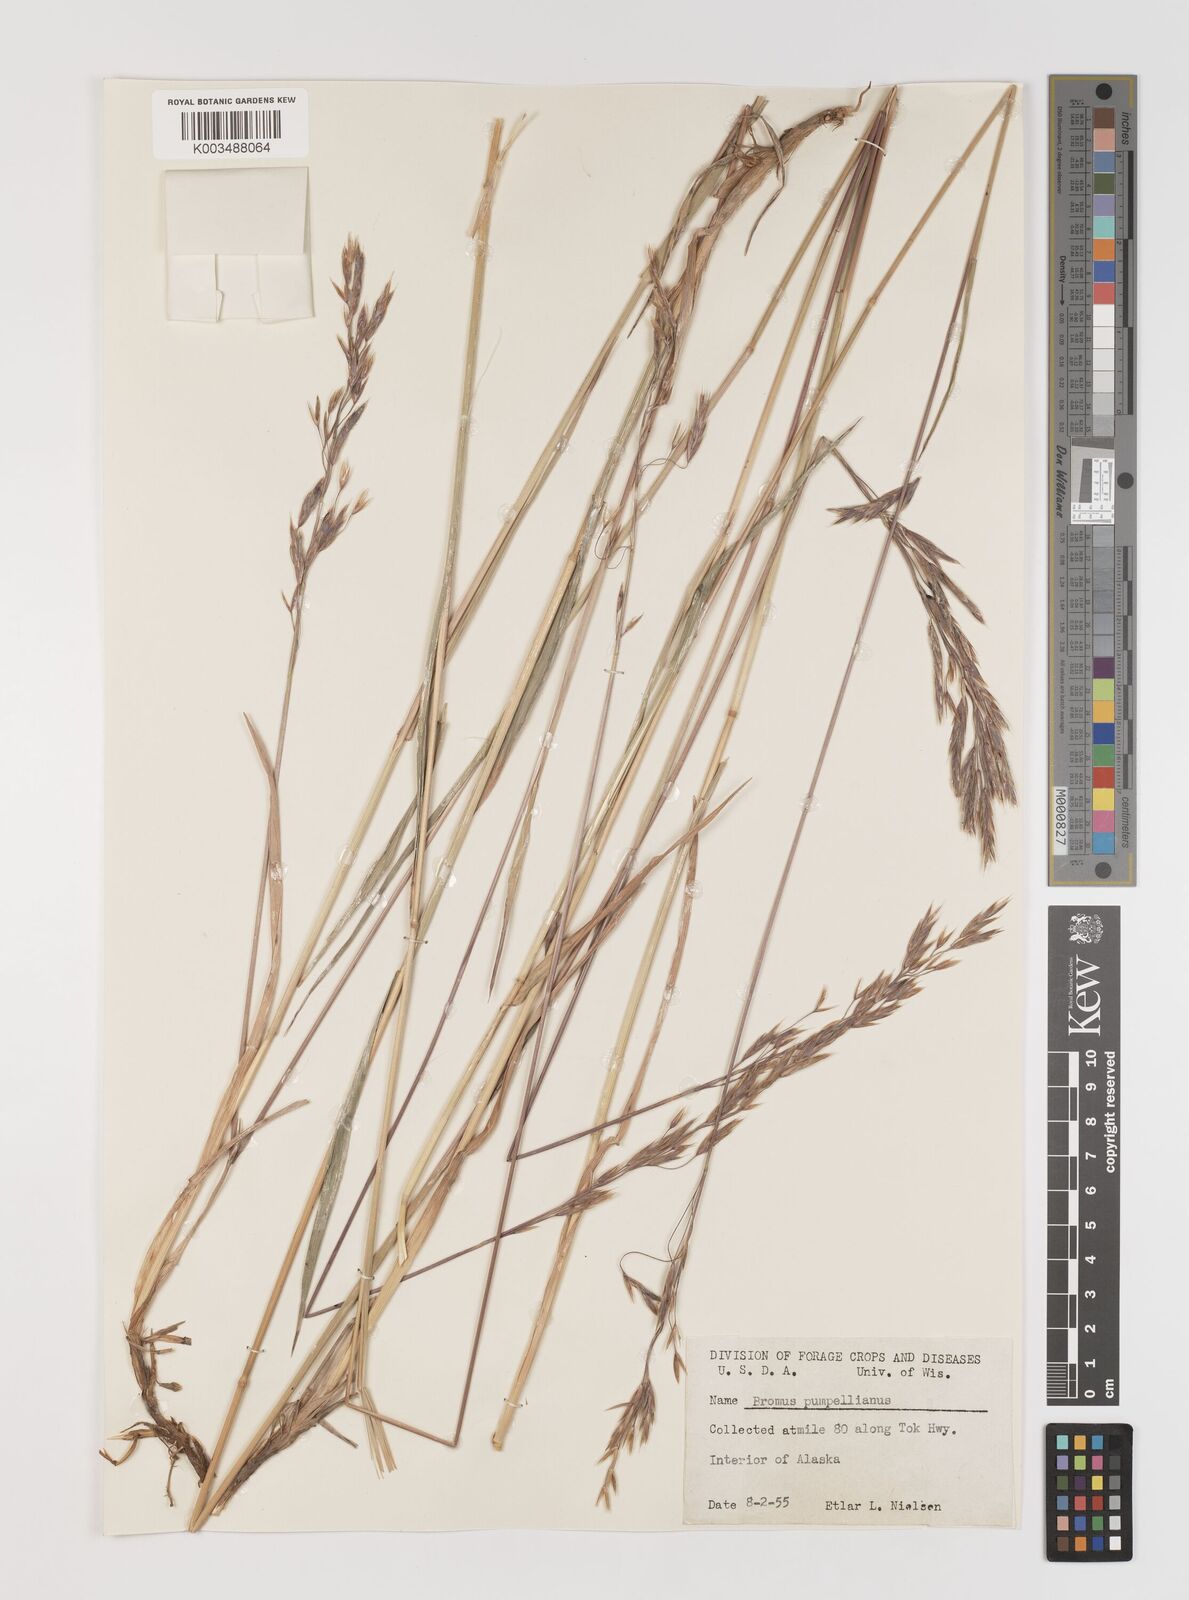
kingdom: Plantae
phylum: Tracheophyta
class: Liliopsida
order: Poales
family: Poaceae
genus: Bromus
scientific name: Bromus pumpellianus
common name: Pumpelly's brome
